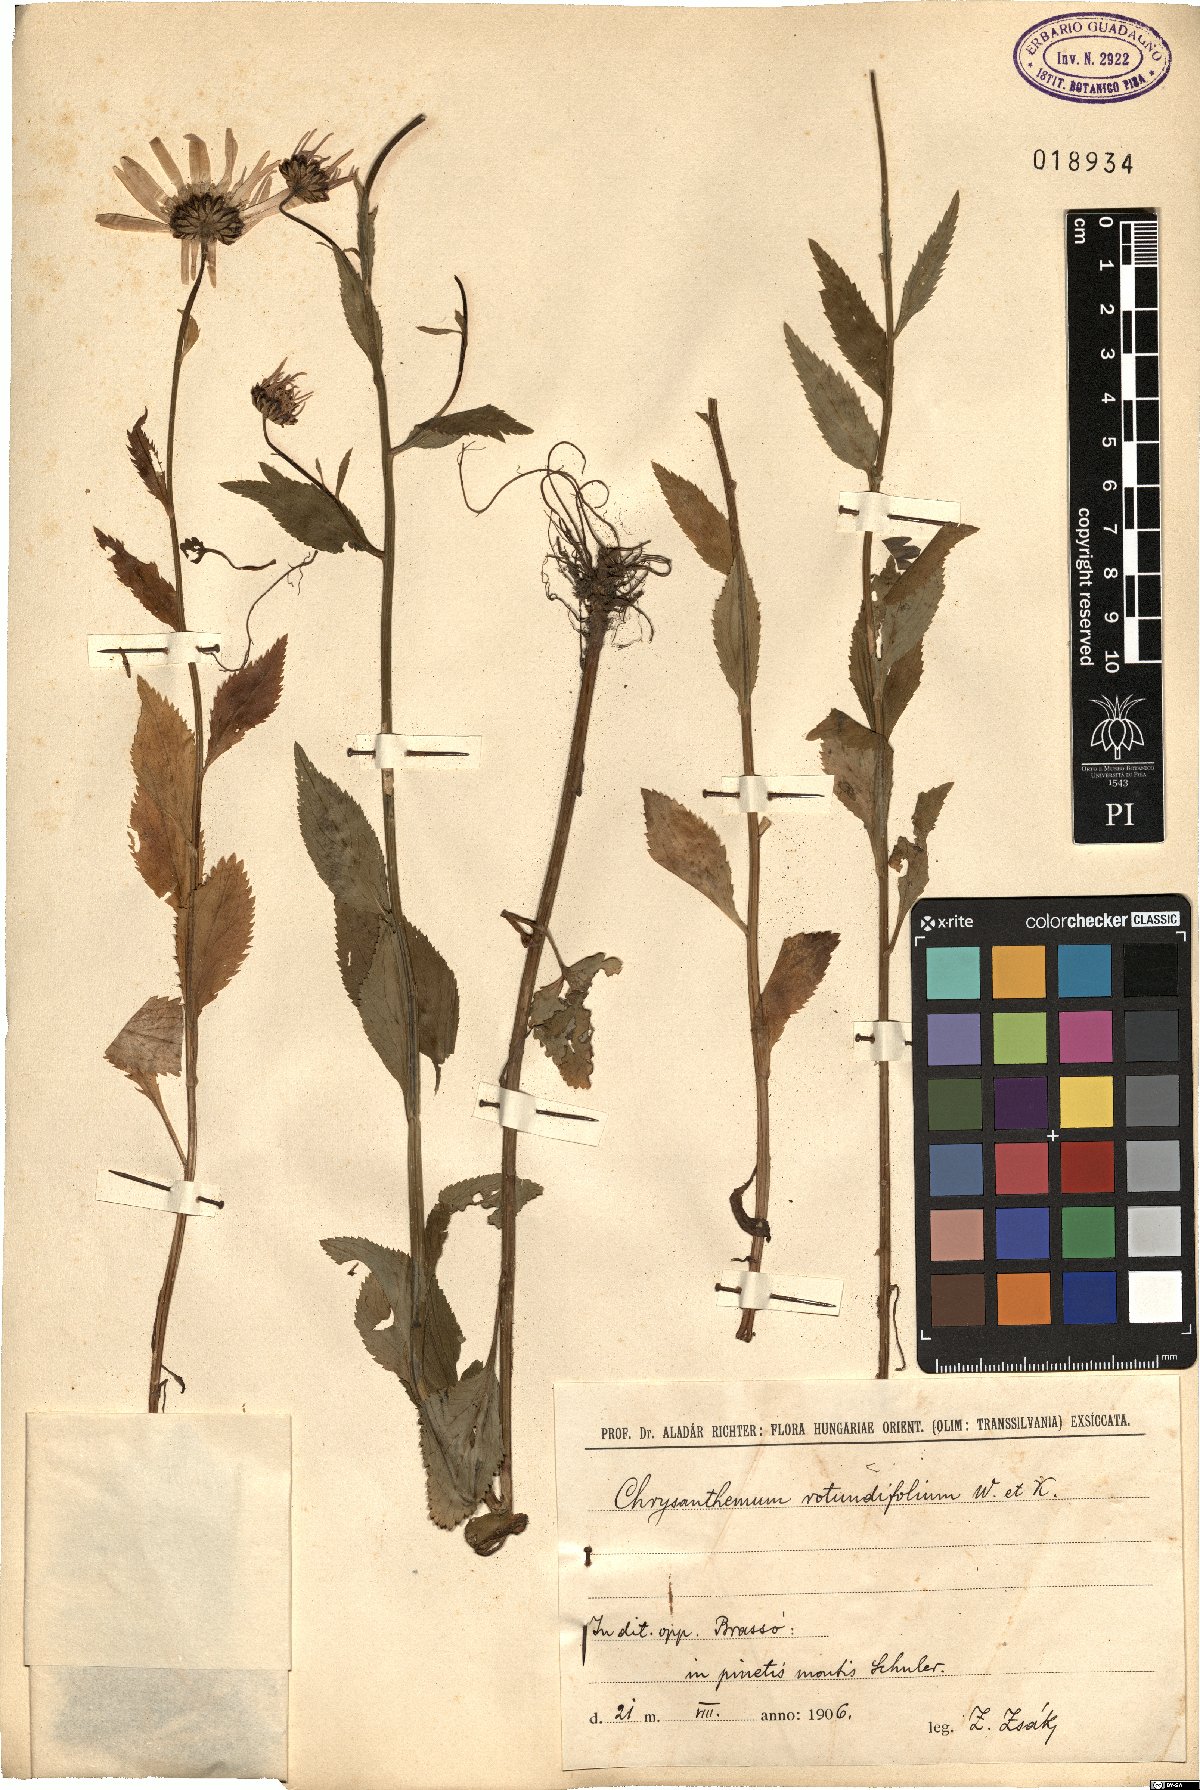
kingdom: Plantae
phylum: Tracheophyta
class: Magnoliopsida
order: Asterales
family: Asteraceae
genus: Leucanthemum
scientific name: Leucanthemum rotundifolium
